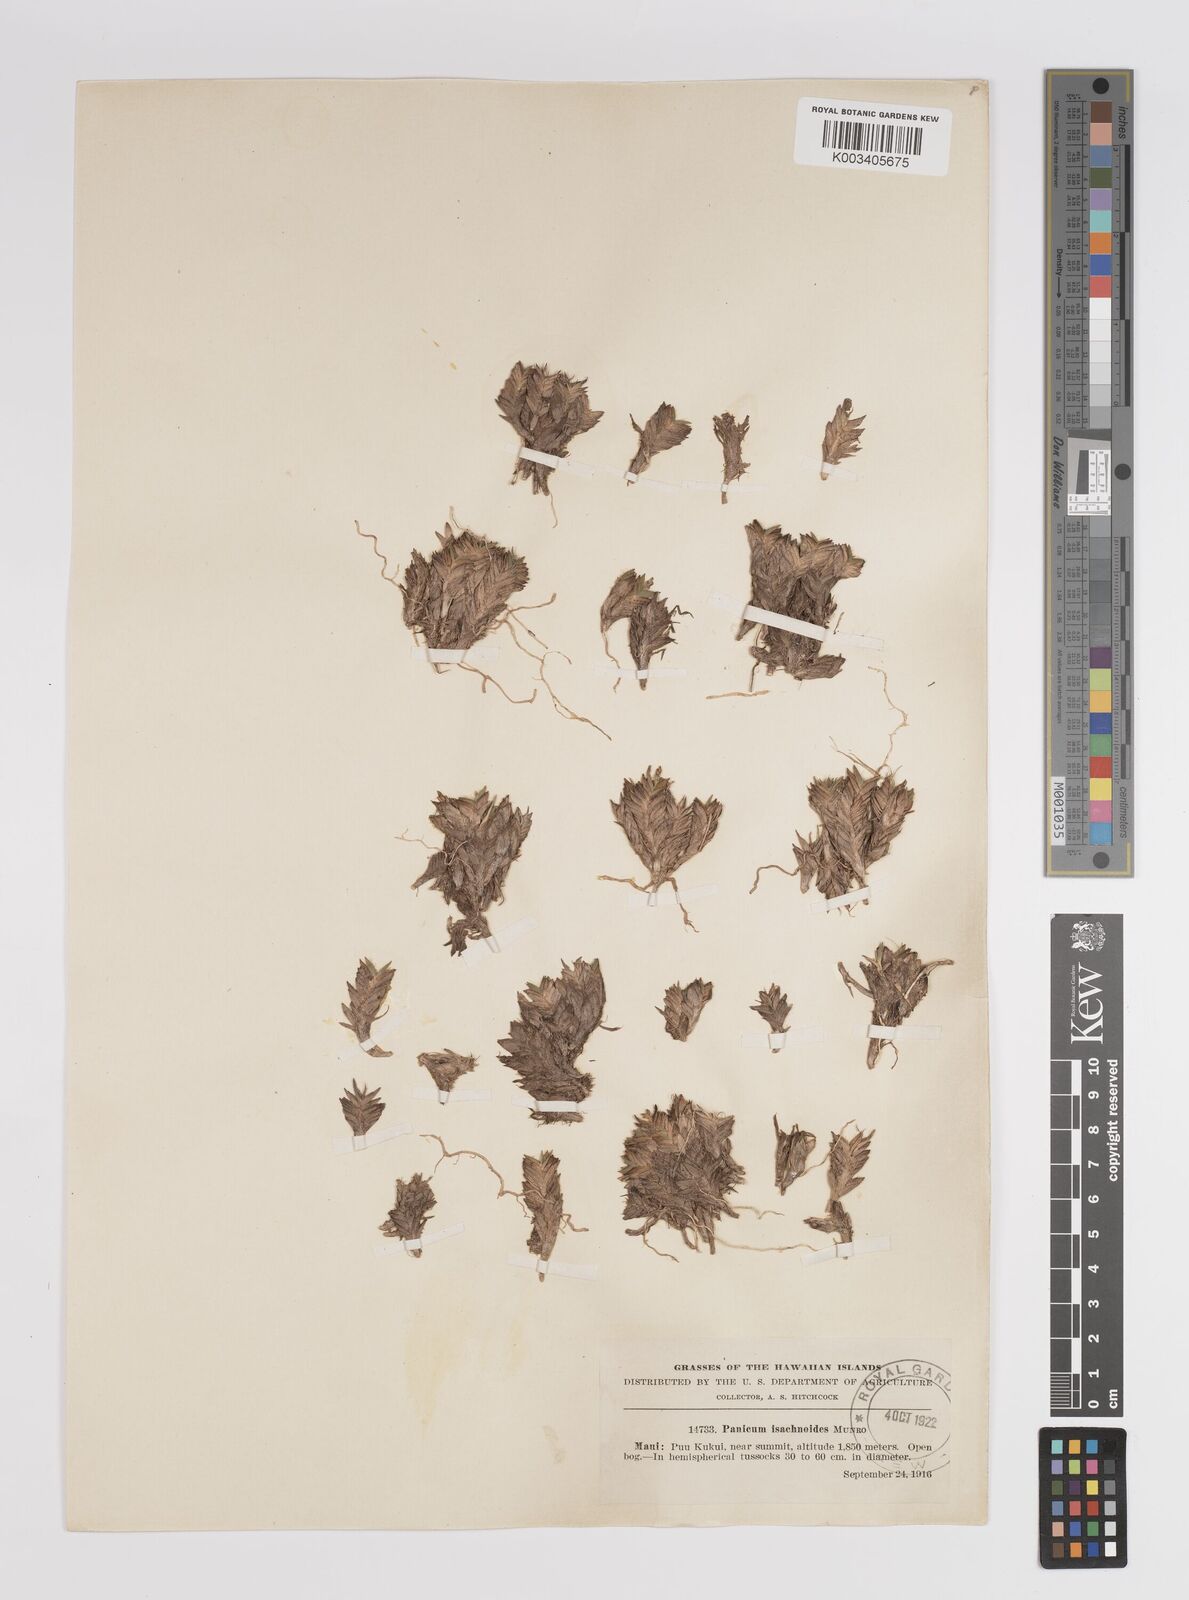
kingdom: Plantae
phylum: Tracheophyta
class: Liliopsida
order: Poales
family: Poaceae
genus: Panicum
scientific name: Panicum
